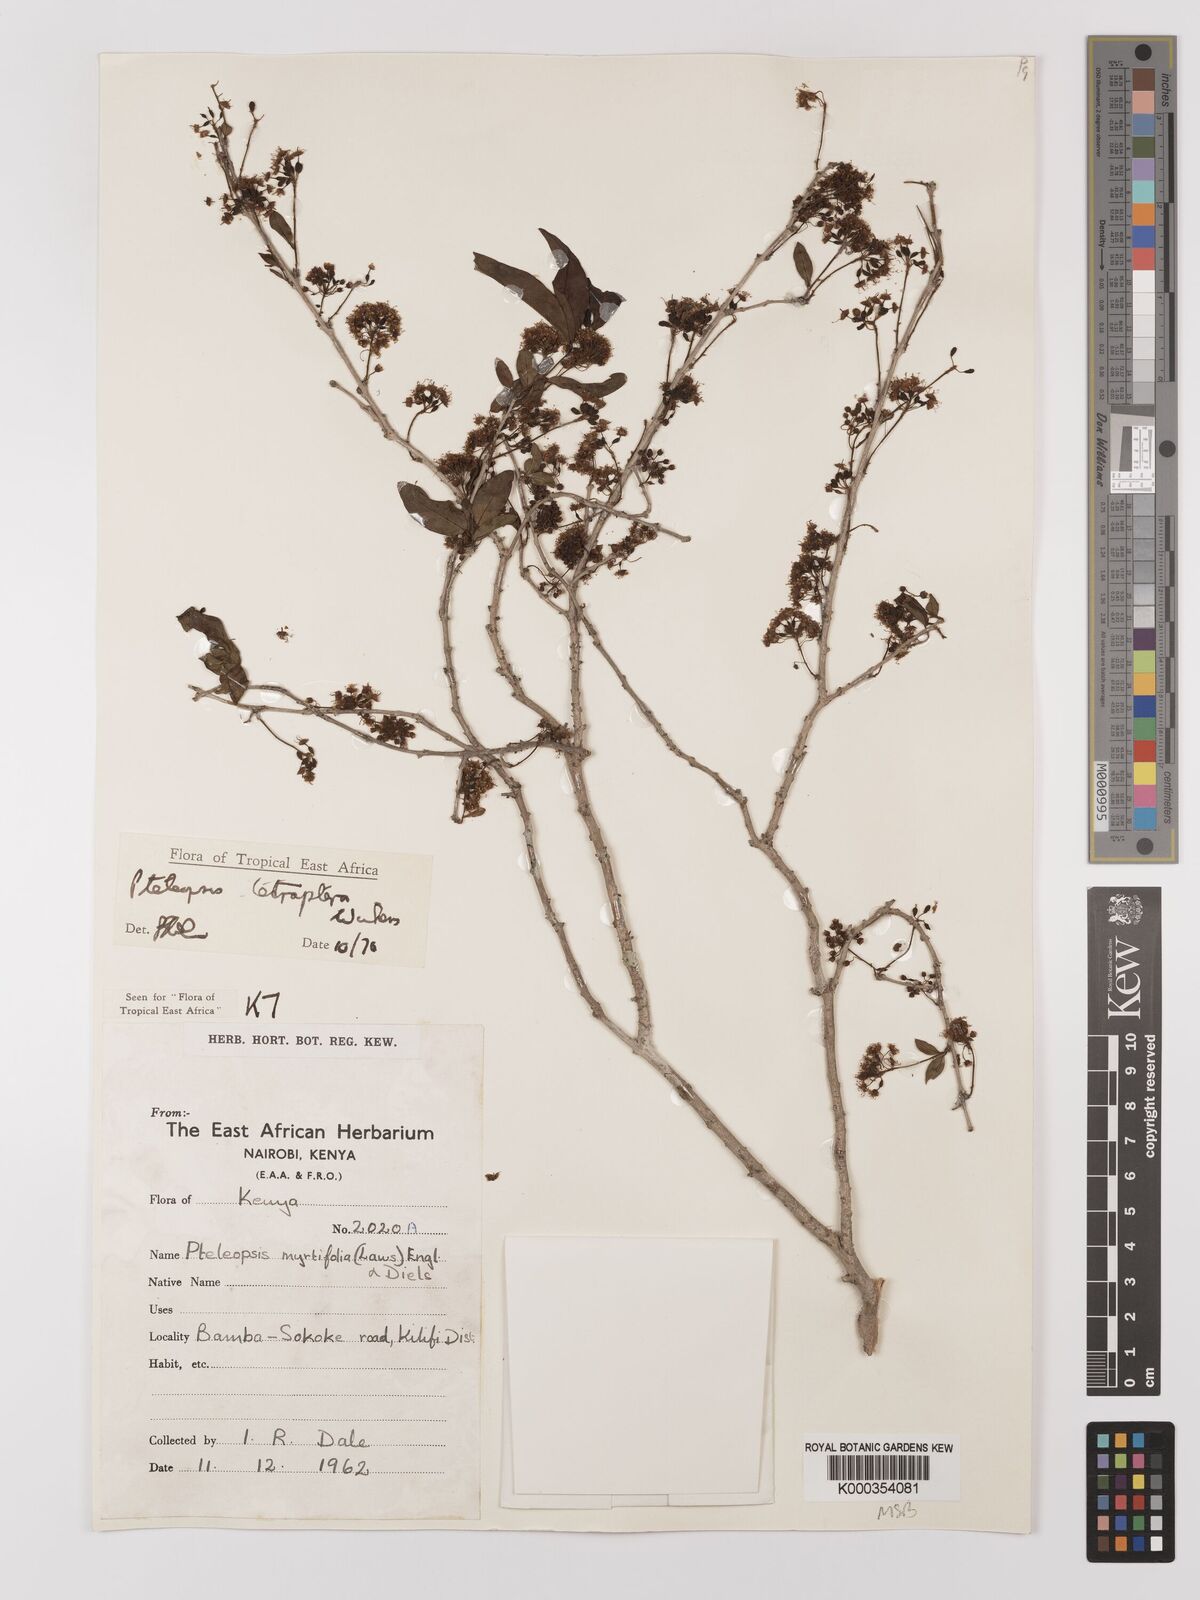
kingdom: Plantae
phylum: Tracheophyta
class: Magnoliopsida
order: Myrtales
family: Combretaceae
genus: Terminalia
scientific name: Terminalia tetraptera
